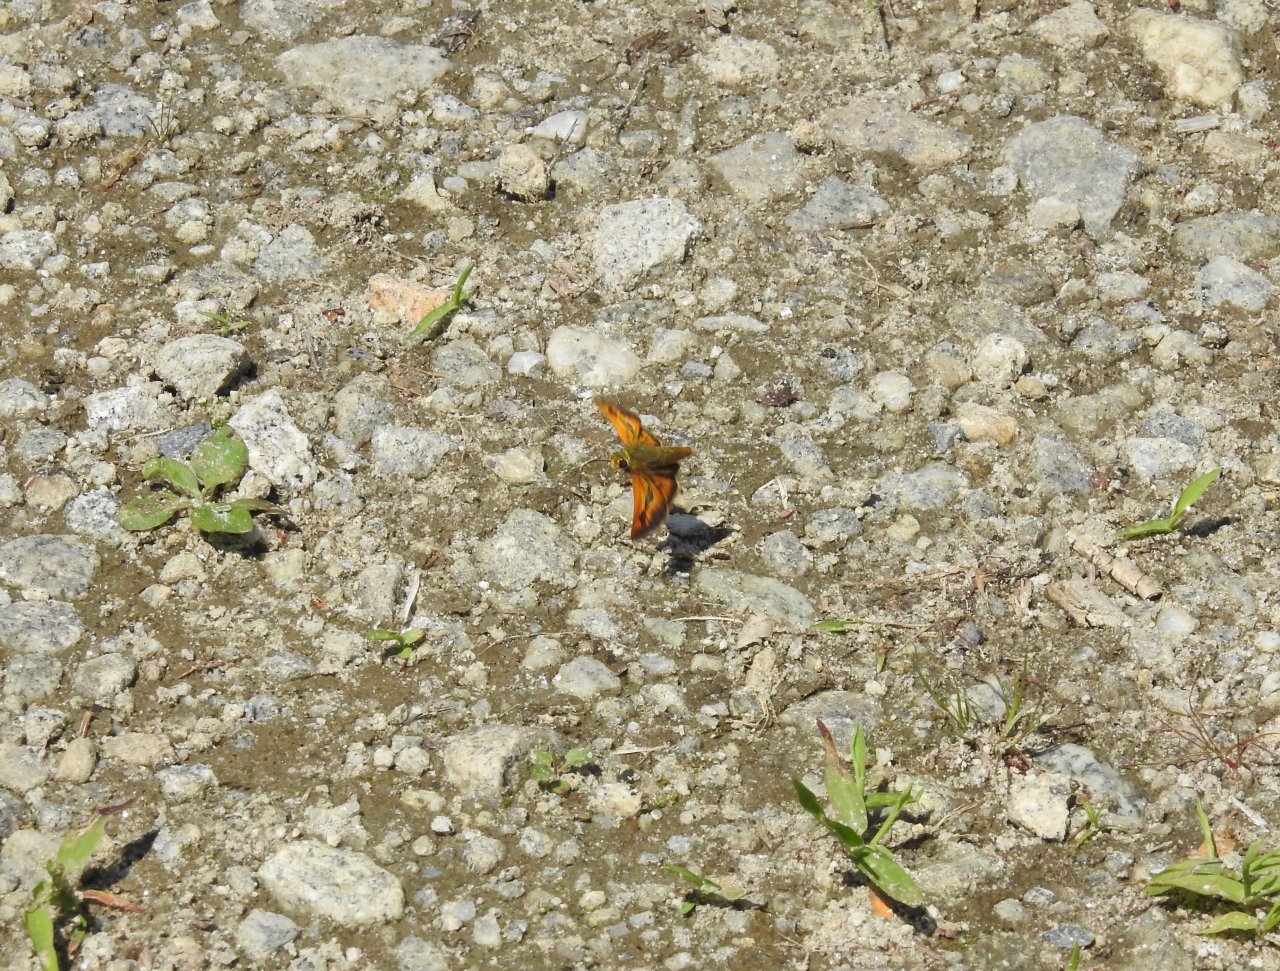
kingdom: Animalia
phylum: Arthropoda
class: Insecta
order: Lepidoptera
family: Hesperiidae
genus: Polites
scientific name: Polites
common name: Long Dash Skipper
